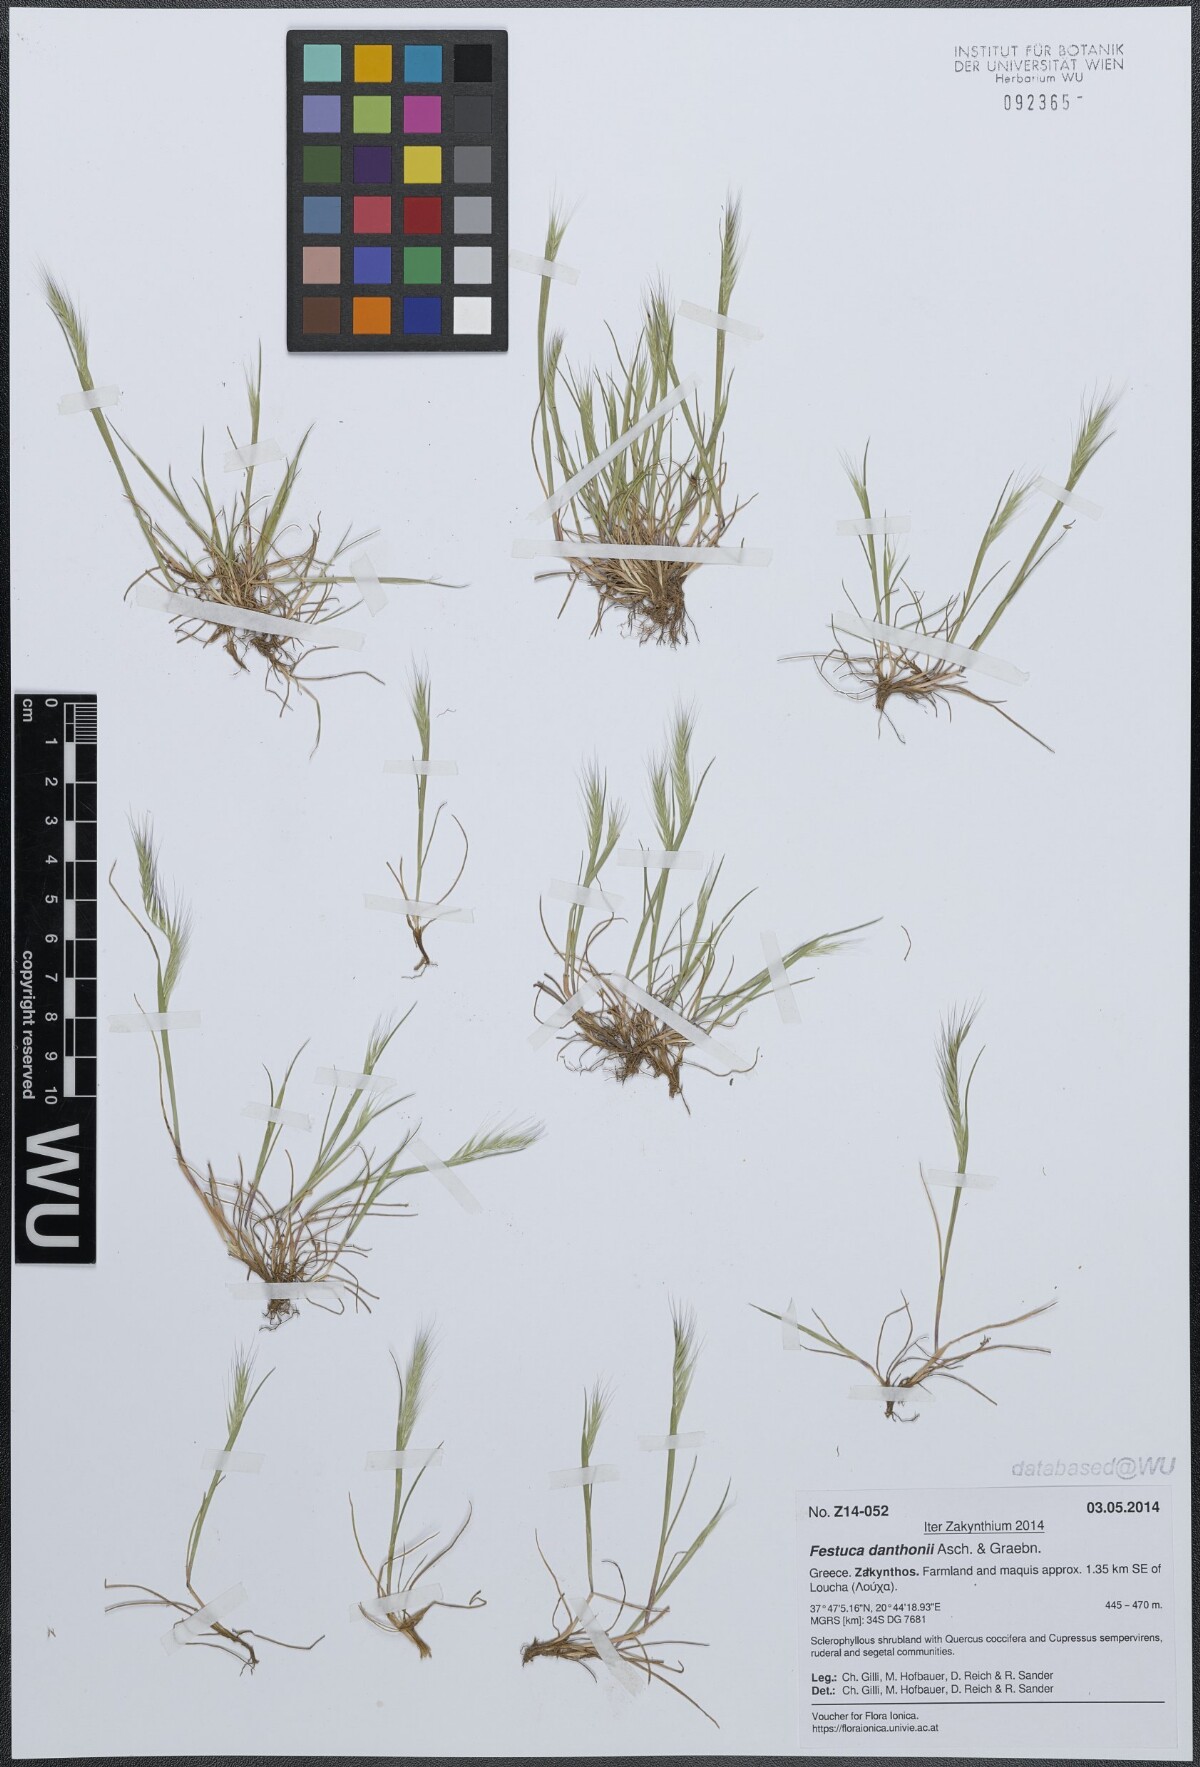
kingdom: Plantae
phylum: Tracheophyta
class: Liliopsida
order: Poales
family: Poaceae
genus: Festuca
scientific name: Festuca ambigua
